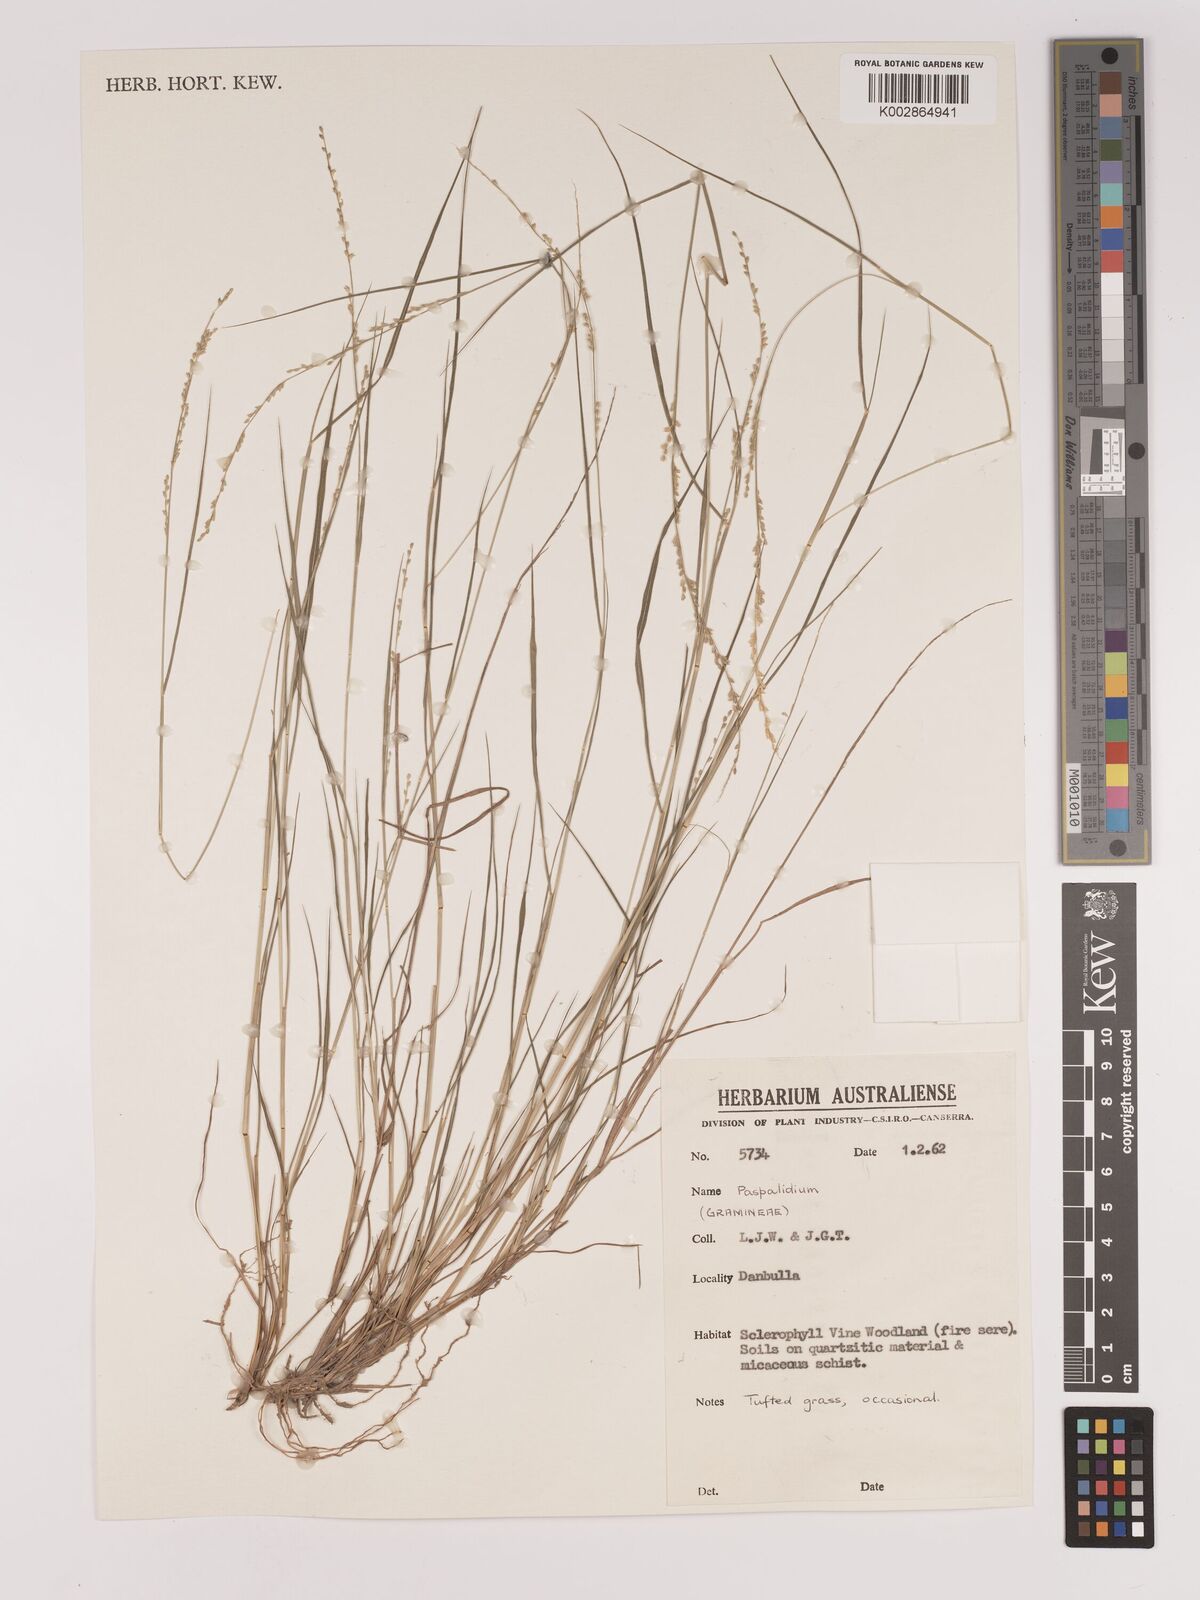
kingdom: Plantae
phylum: Tracheophyta
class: Liliopsida
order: Poales
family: Poaceae
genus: Setaria
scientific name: Setaria
